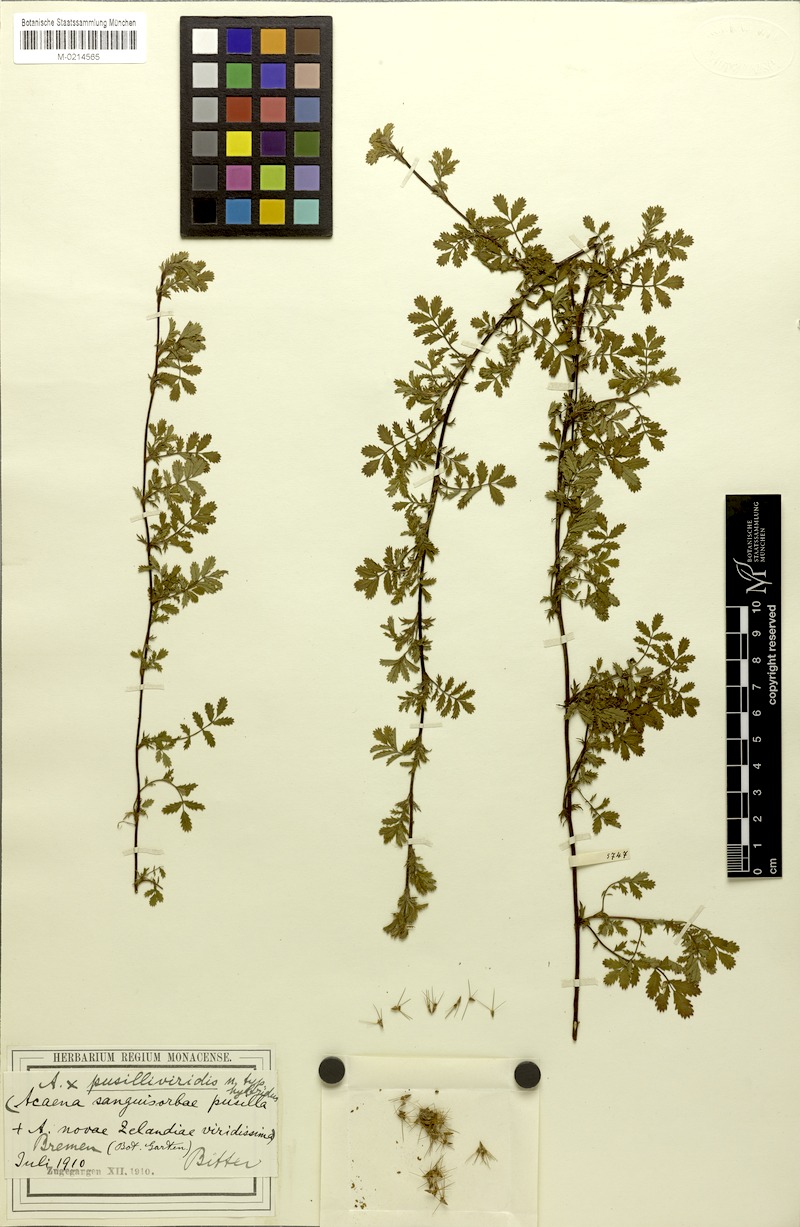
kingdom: Plantae
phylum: Tracheophyta
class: Magnoliopsida
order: Rosales
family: Rosaceae
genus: Acaena
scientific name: Acaena pusilliviridis
